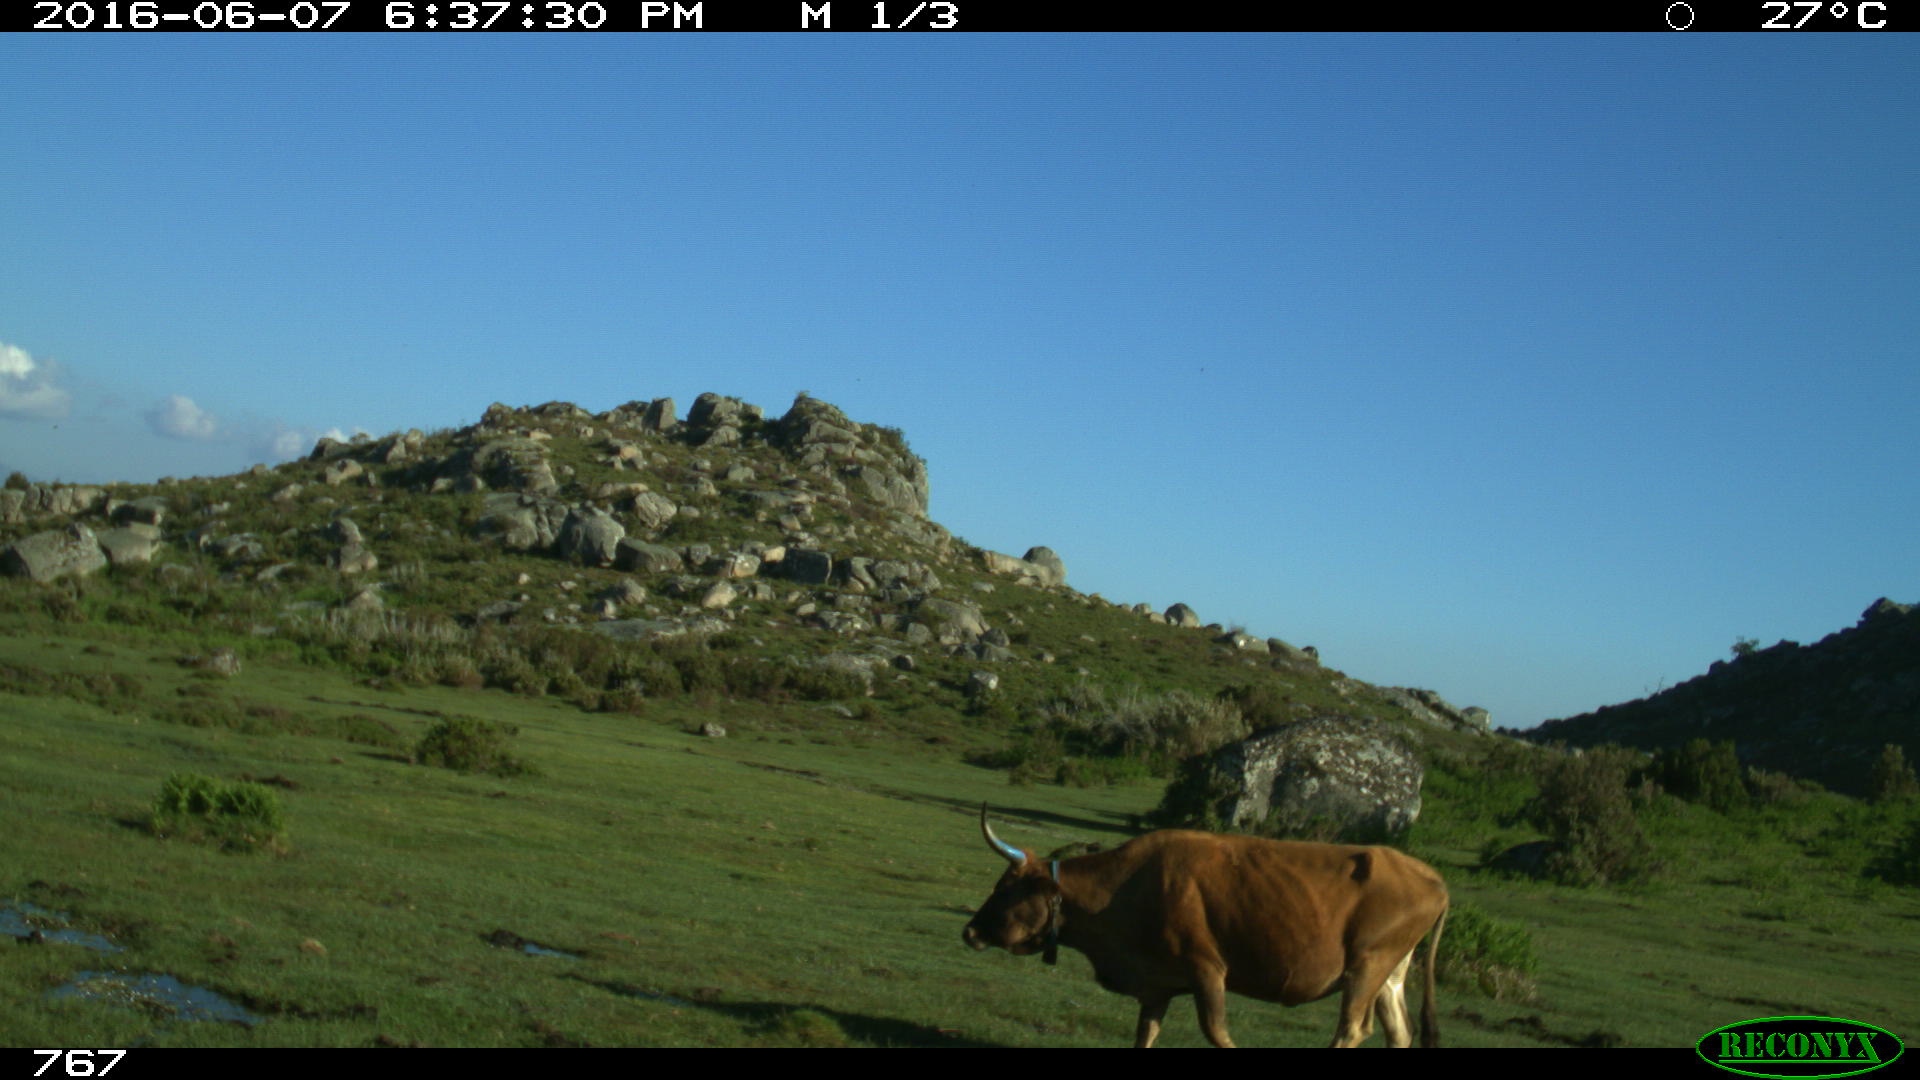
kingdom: Animalia
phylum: Chordata
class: Mammalia
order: Artiodactyla
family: Bovidae
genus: Bos
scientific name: Bos taurus
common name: Domesticated cattle
